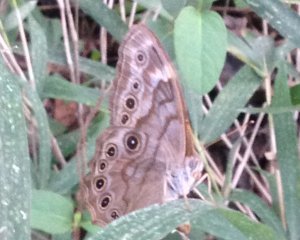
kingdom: Animalia
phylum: Arthropoda
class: Insecta
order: Lepidoptera
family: Nymphalidae
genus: Lethe
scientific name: Lethe creola
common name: Creole Pearly-Eye
